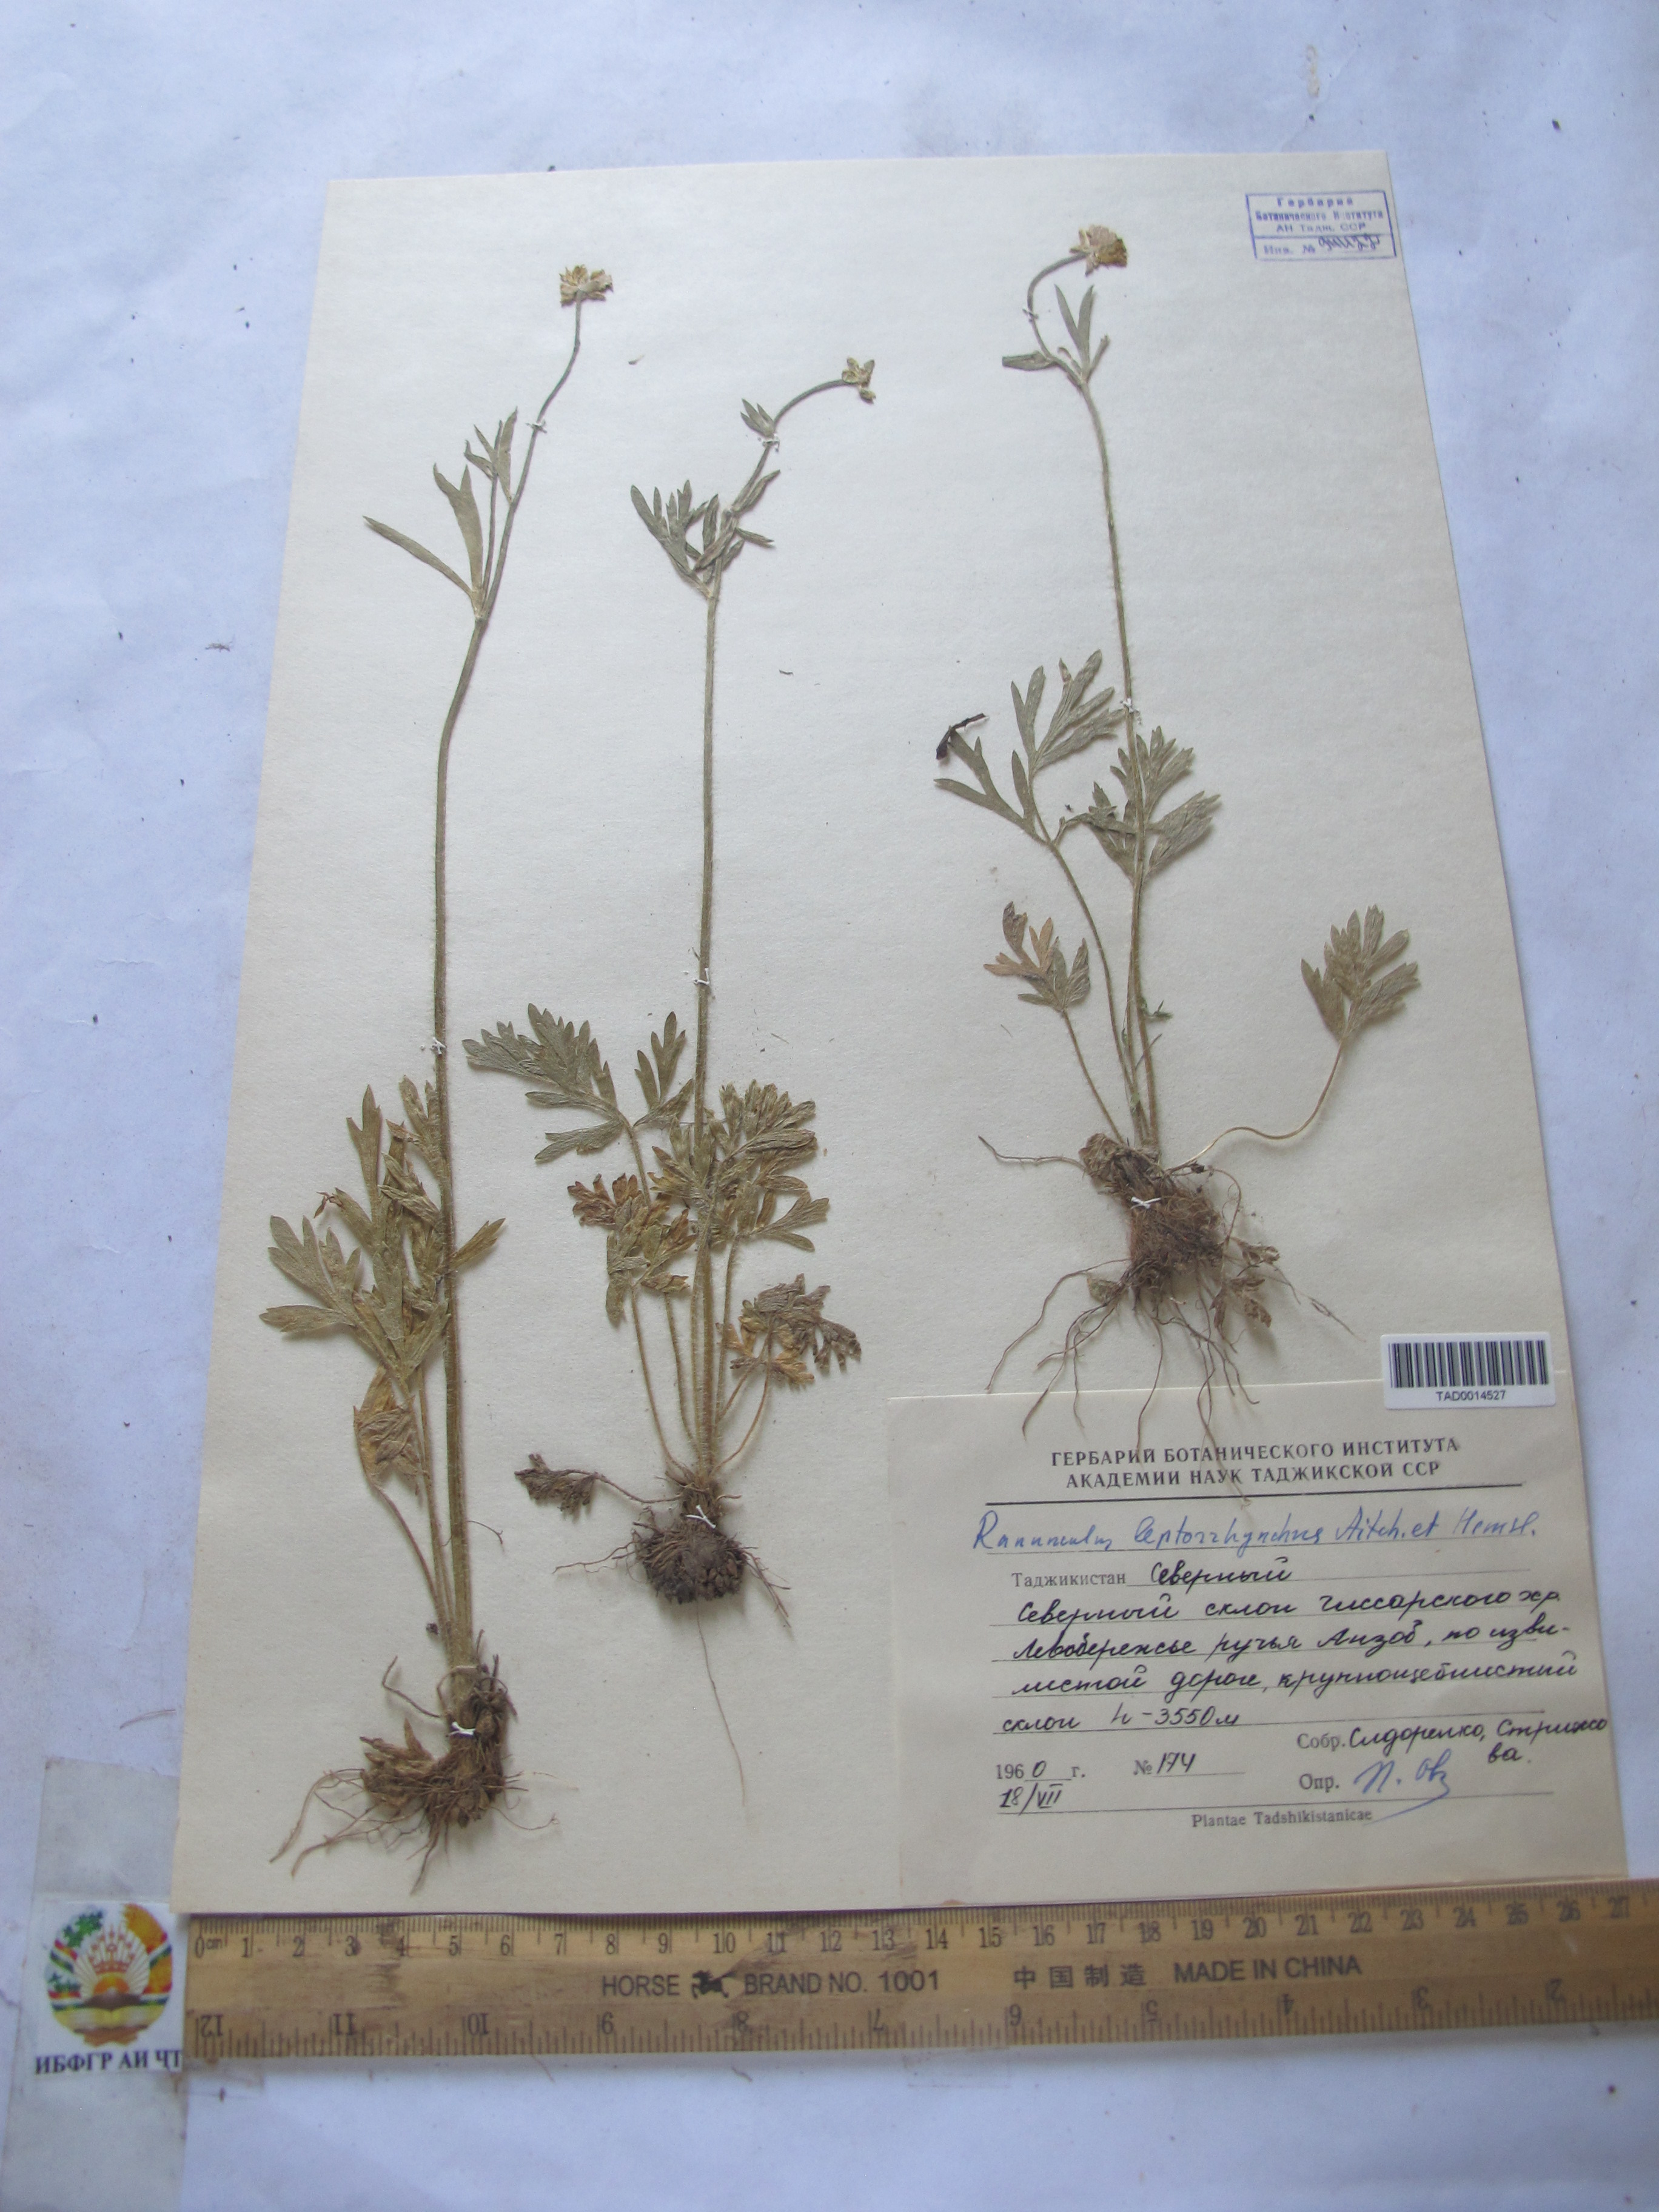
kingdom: Plantae
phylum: Tracheophyta
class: Magnoliopsida
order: Ranunculales
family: Ranunculaceae
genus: Ranunculus
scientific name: Ranunculus leptorrhynchus
